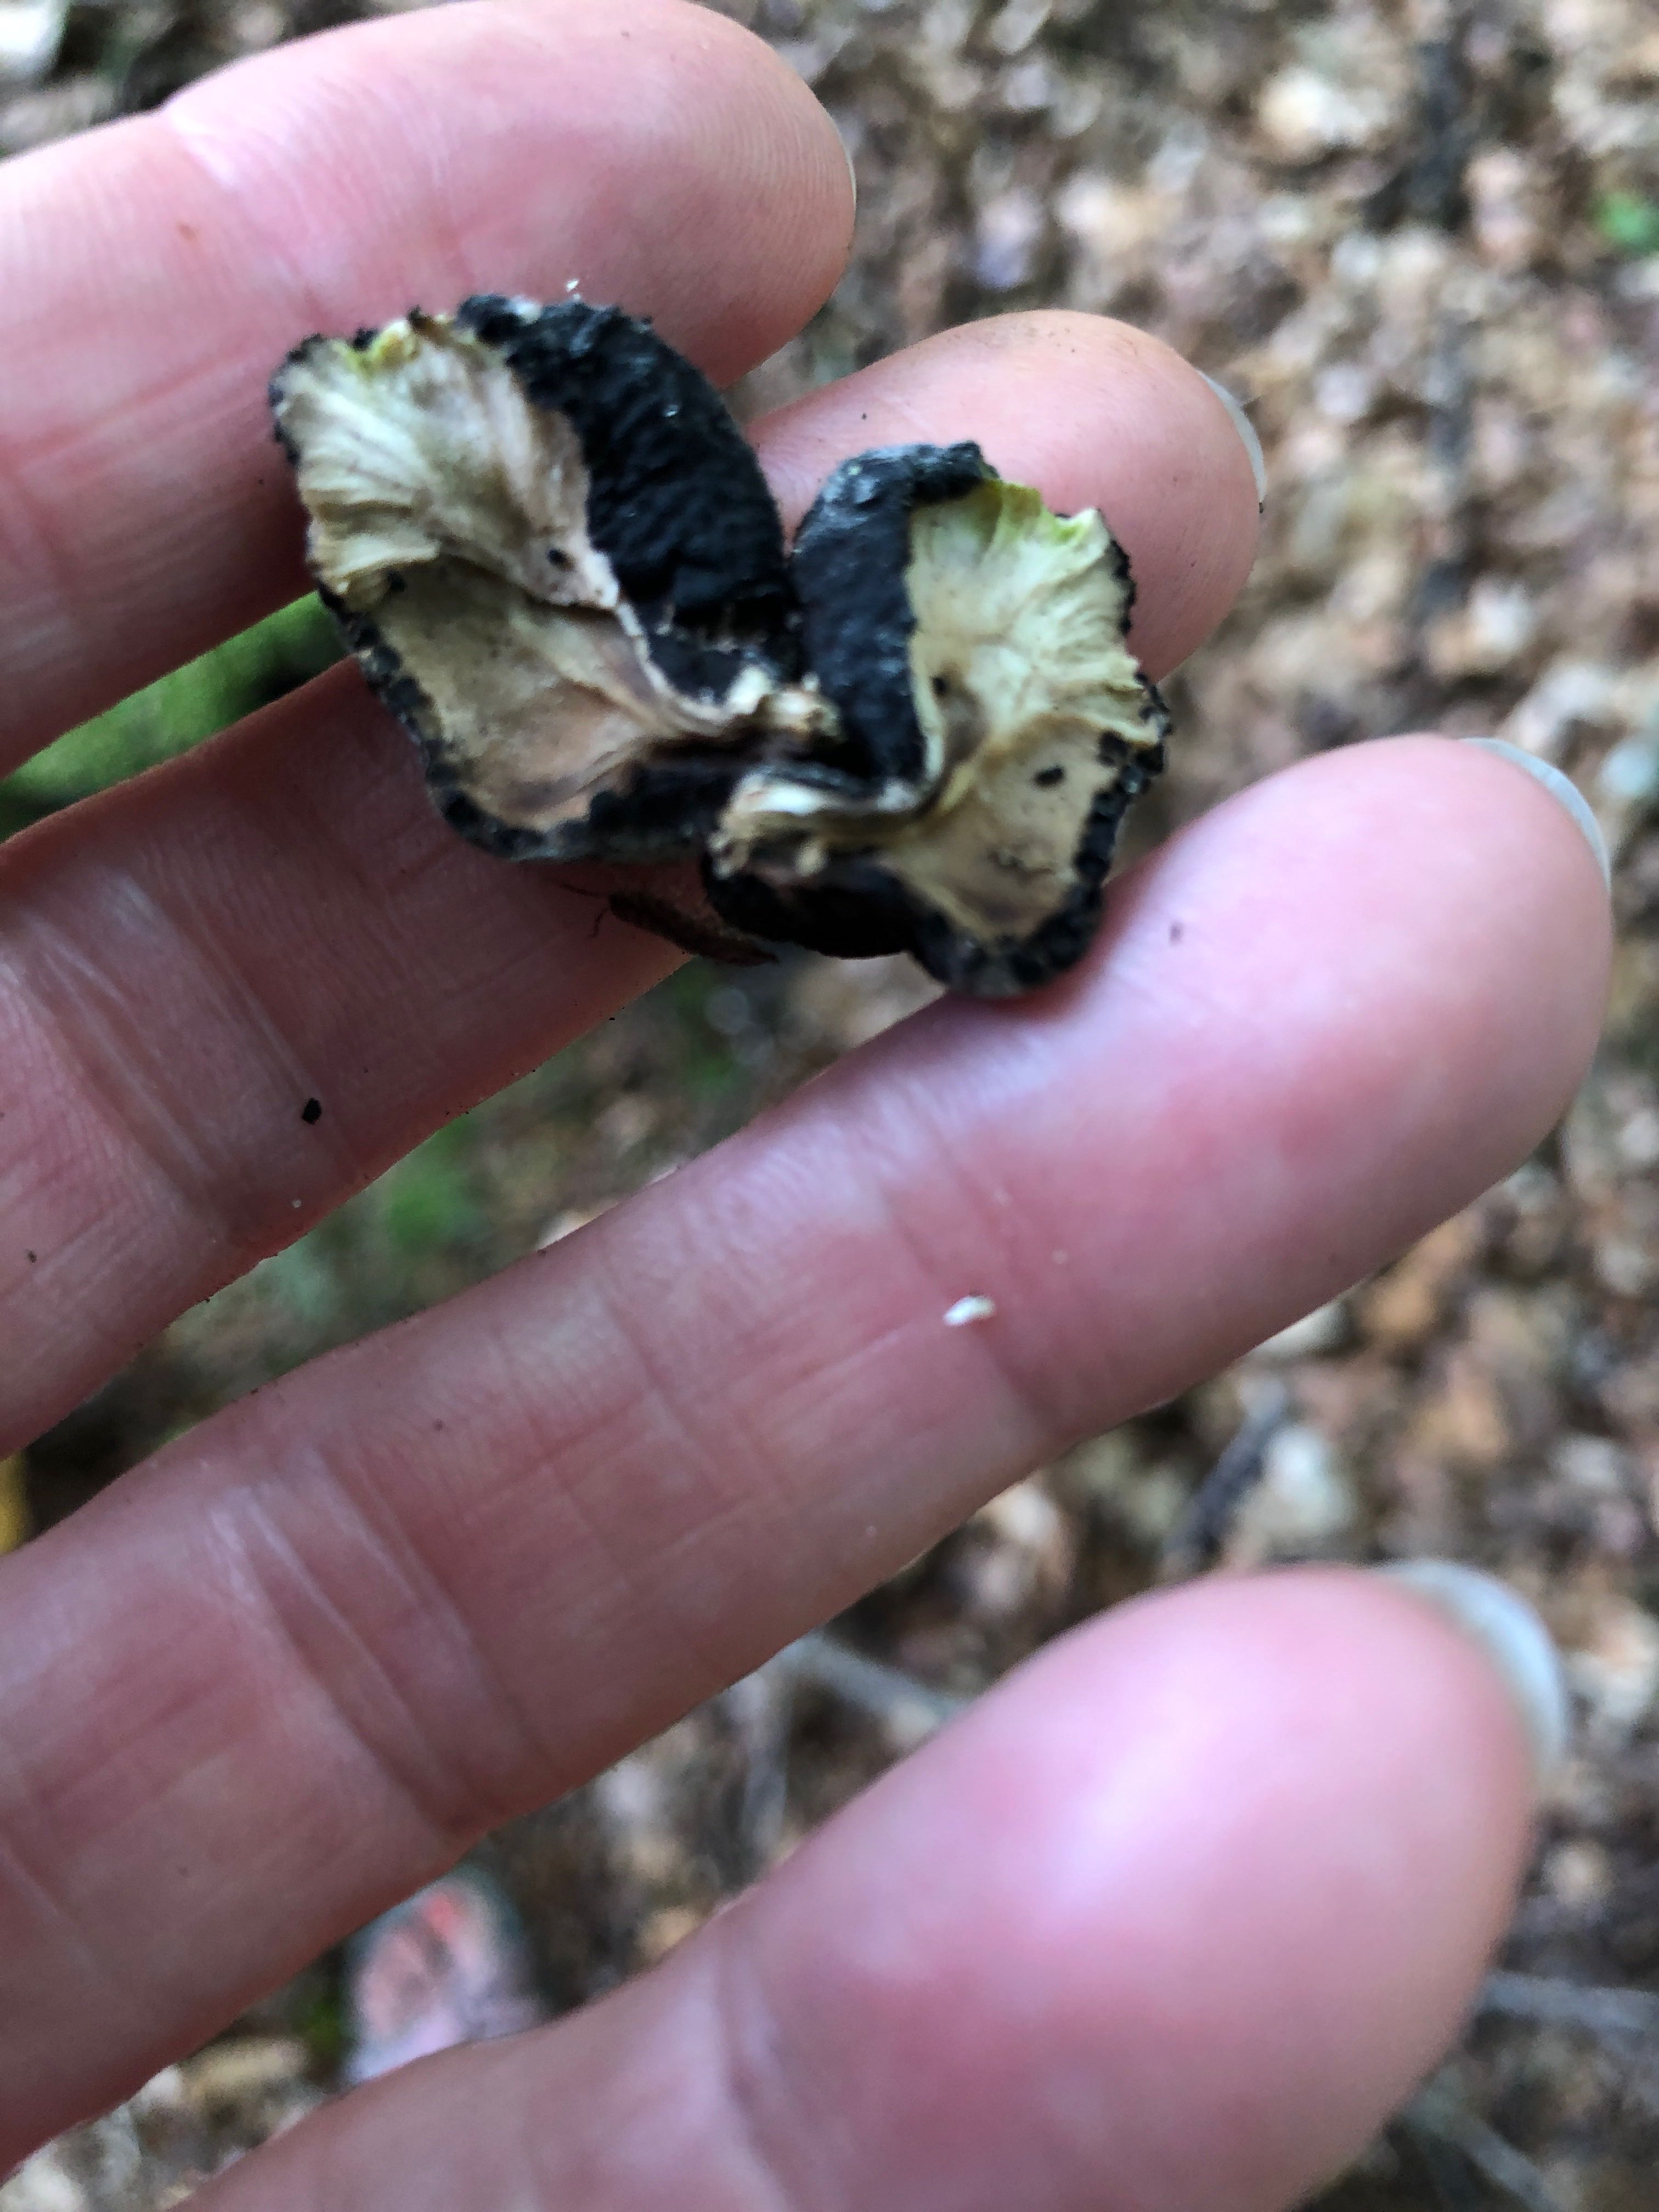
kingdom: Fungi
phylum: Ascomycota
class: Sordariomycetes
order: Xylariales
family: Xylariaceae
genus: Xylaria
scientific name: Xylaria polymorpha
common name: kølle-stødsvamp
